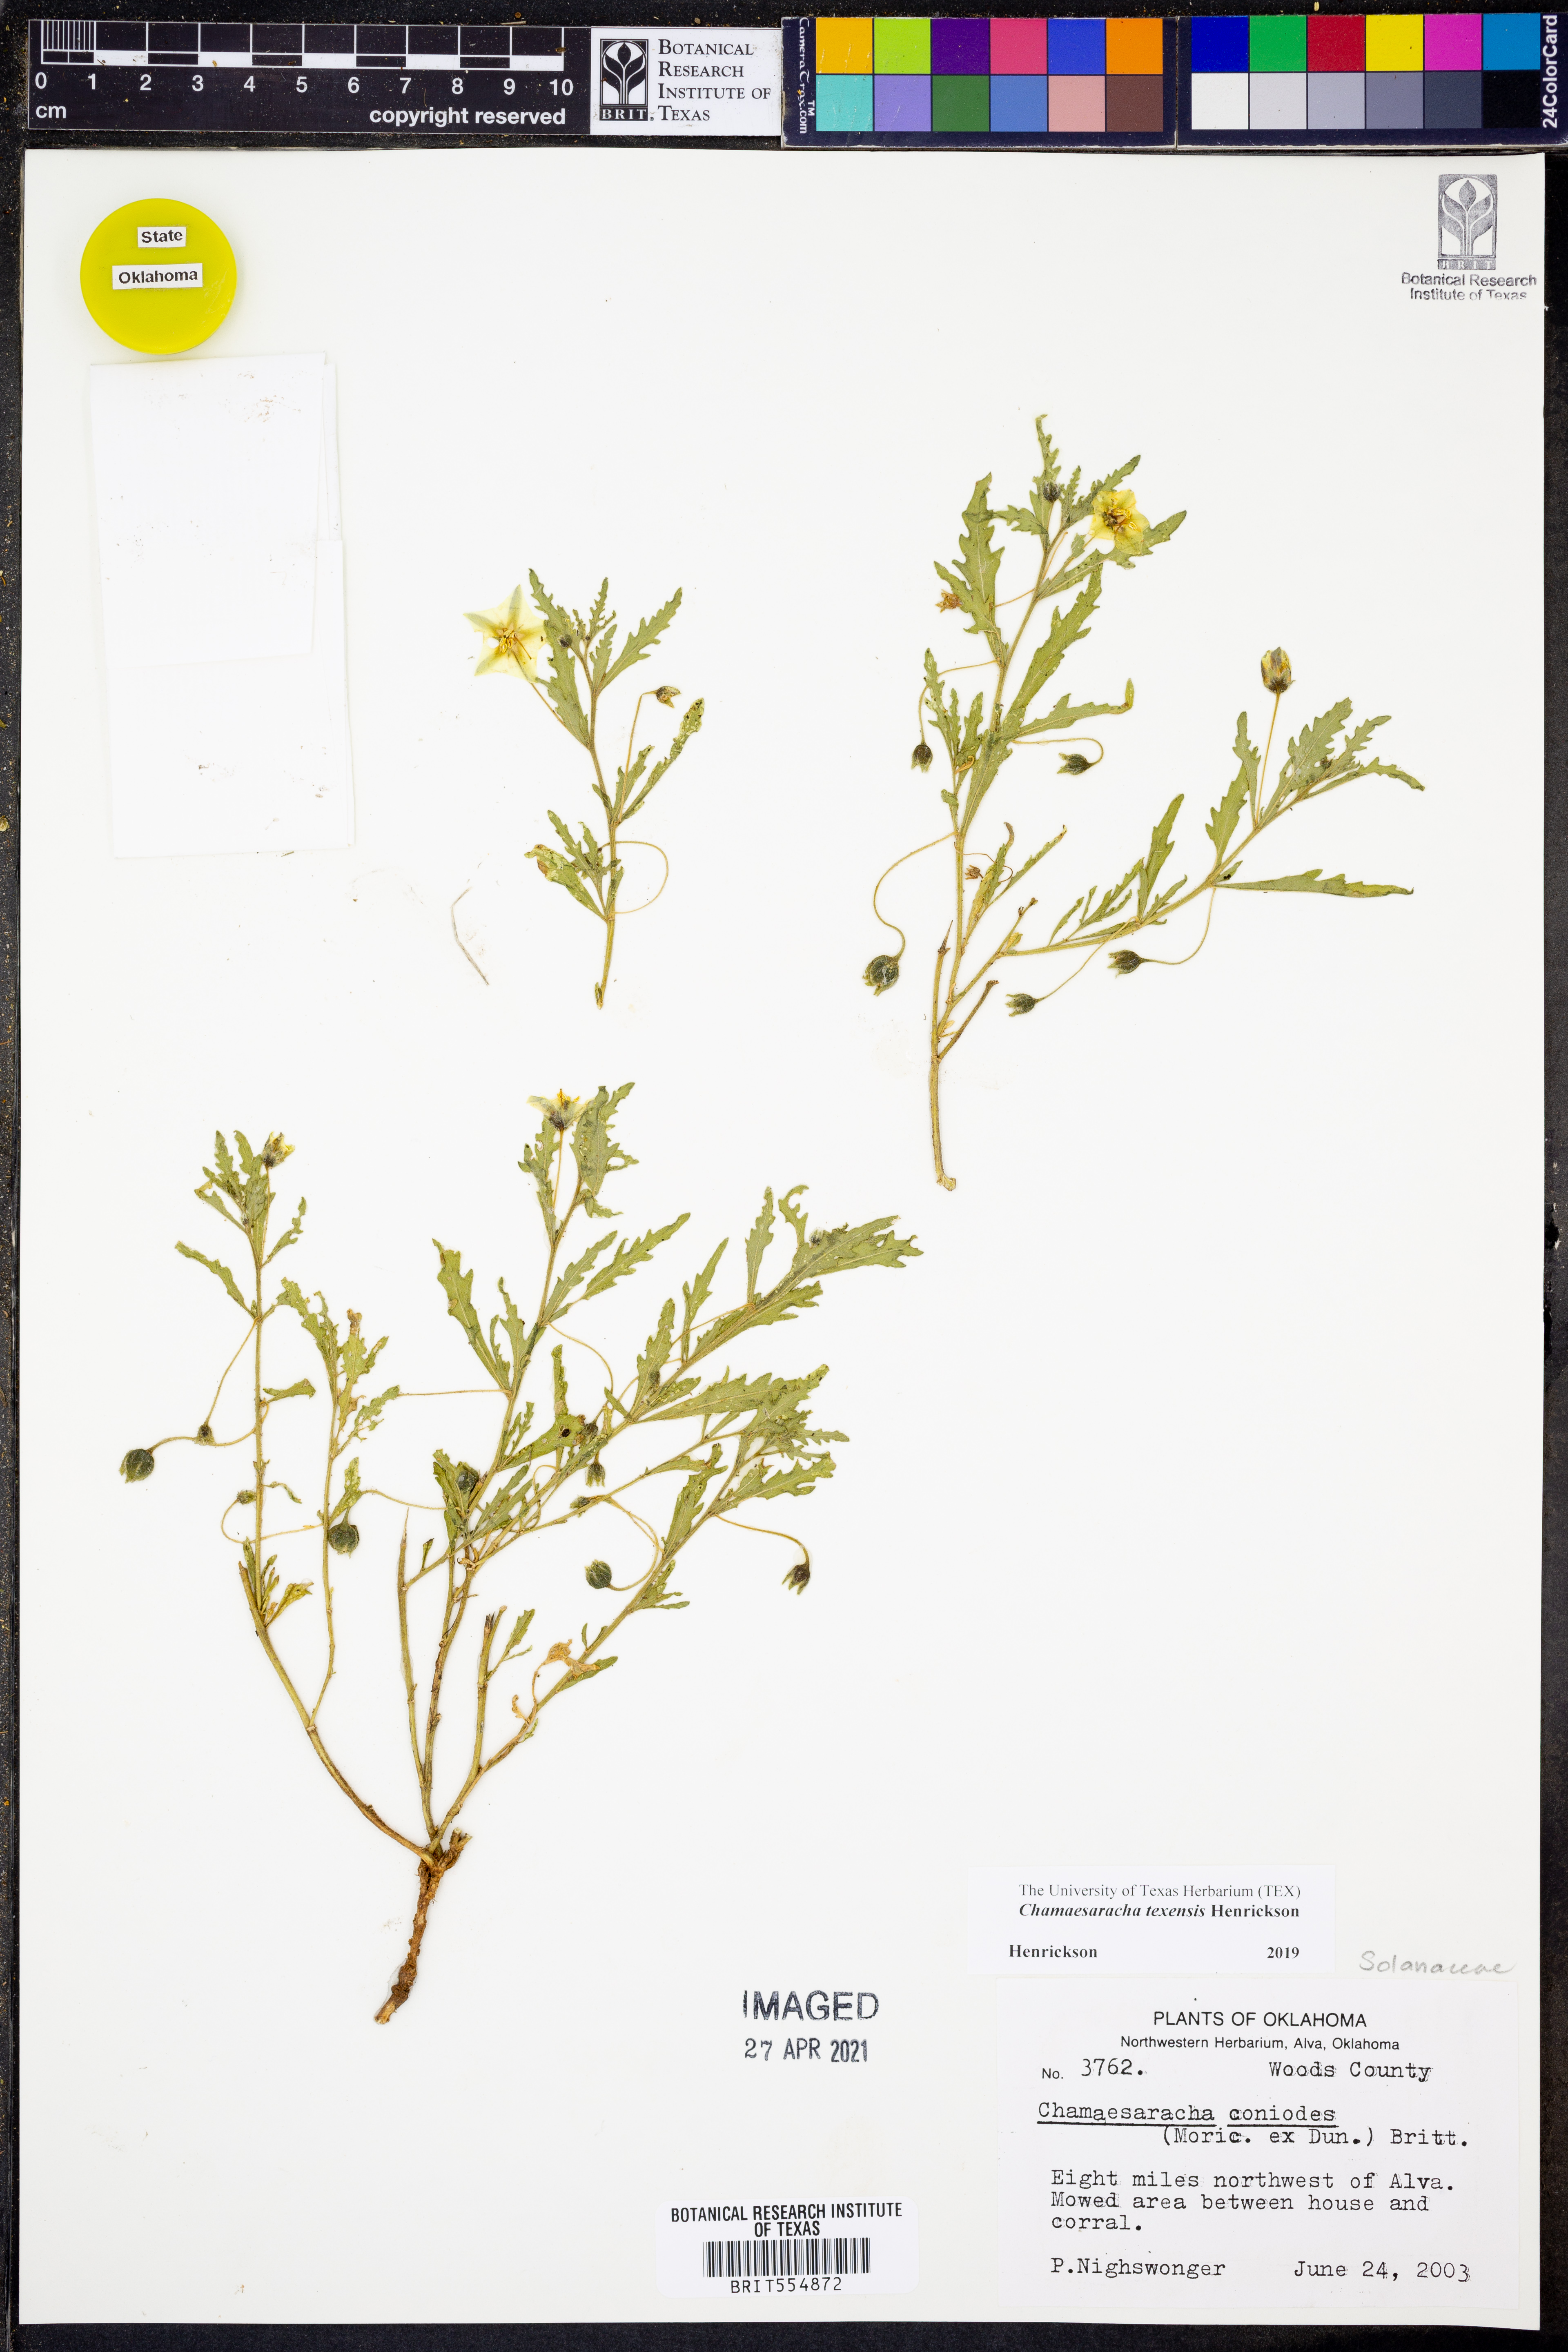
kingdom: Plantae
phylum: Tracheophyta
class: Magnoliopsida
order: Solanales
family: Solanaceae
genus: Chamaesaracha
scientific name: Chamaesaracha texensis
